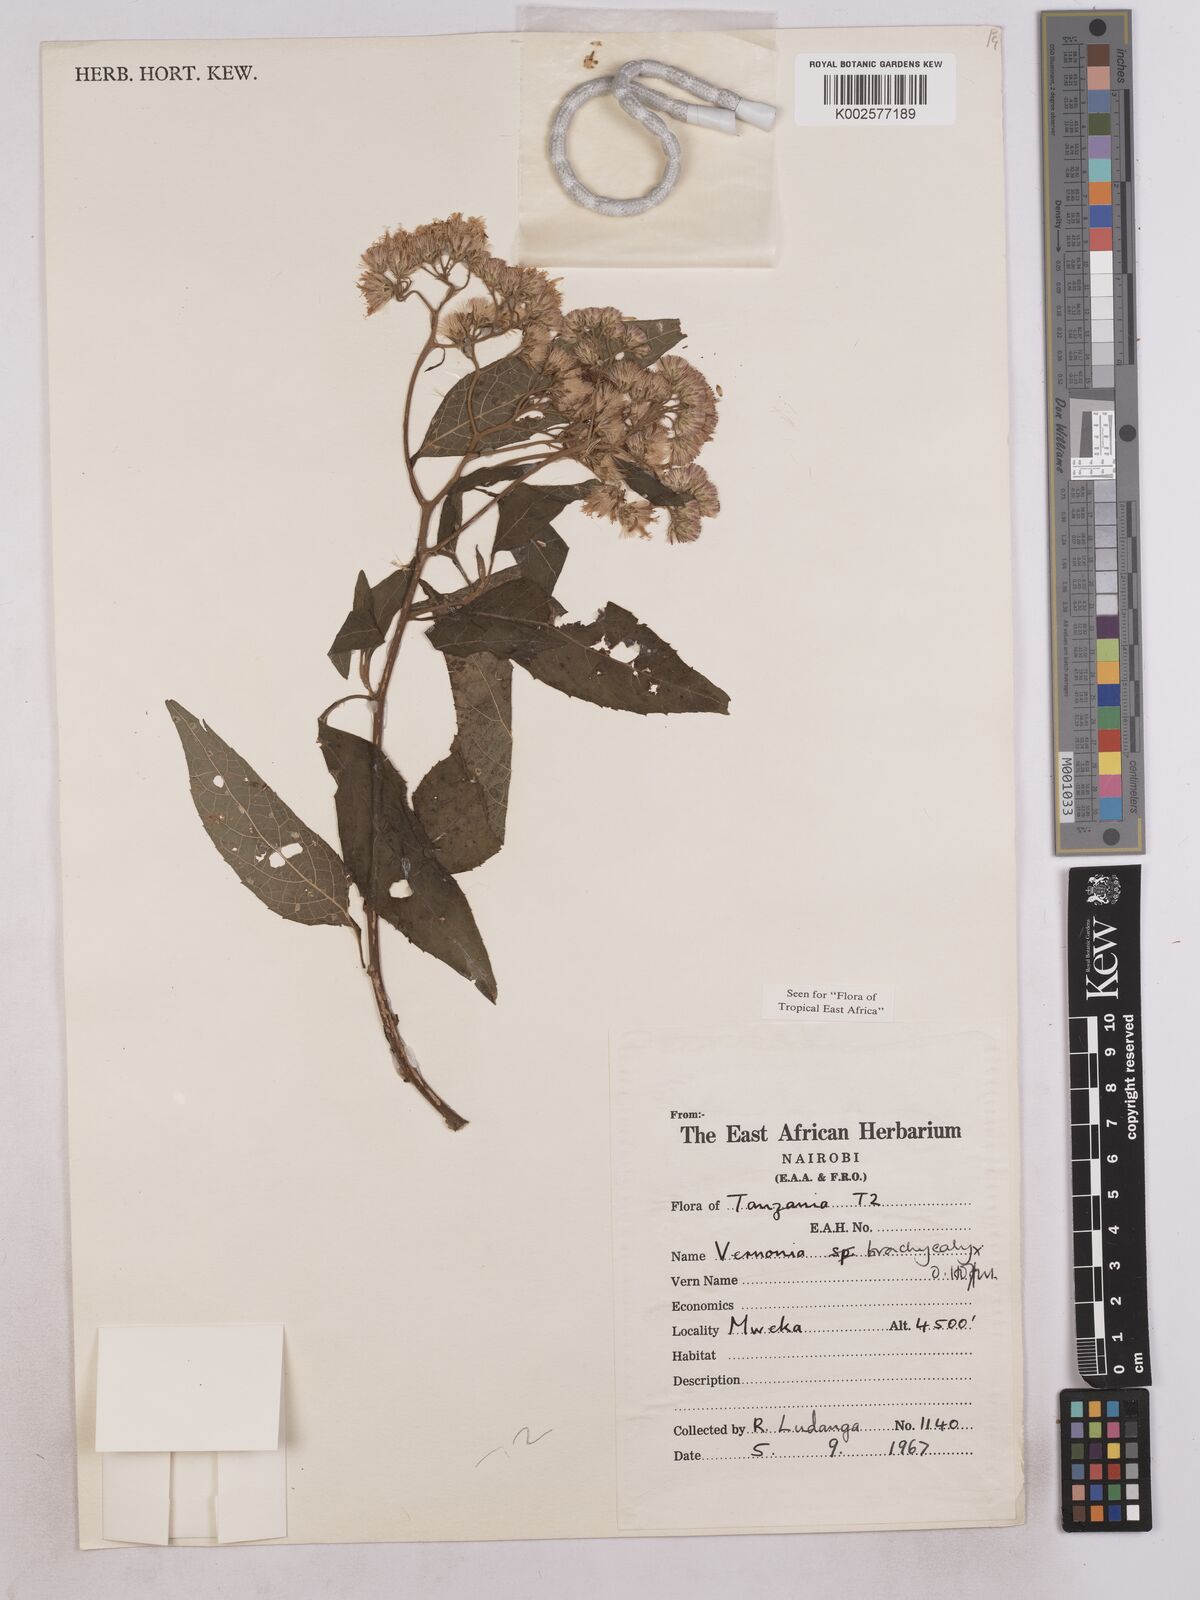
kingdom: Plantae
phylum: Tracheophyta
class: Magnoliopsida
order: Asterales
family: Asteraceae
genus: Hoffmannanthus
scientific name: Hoffmannanthus abbotianus
